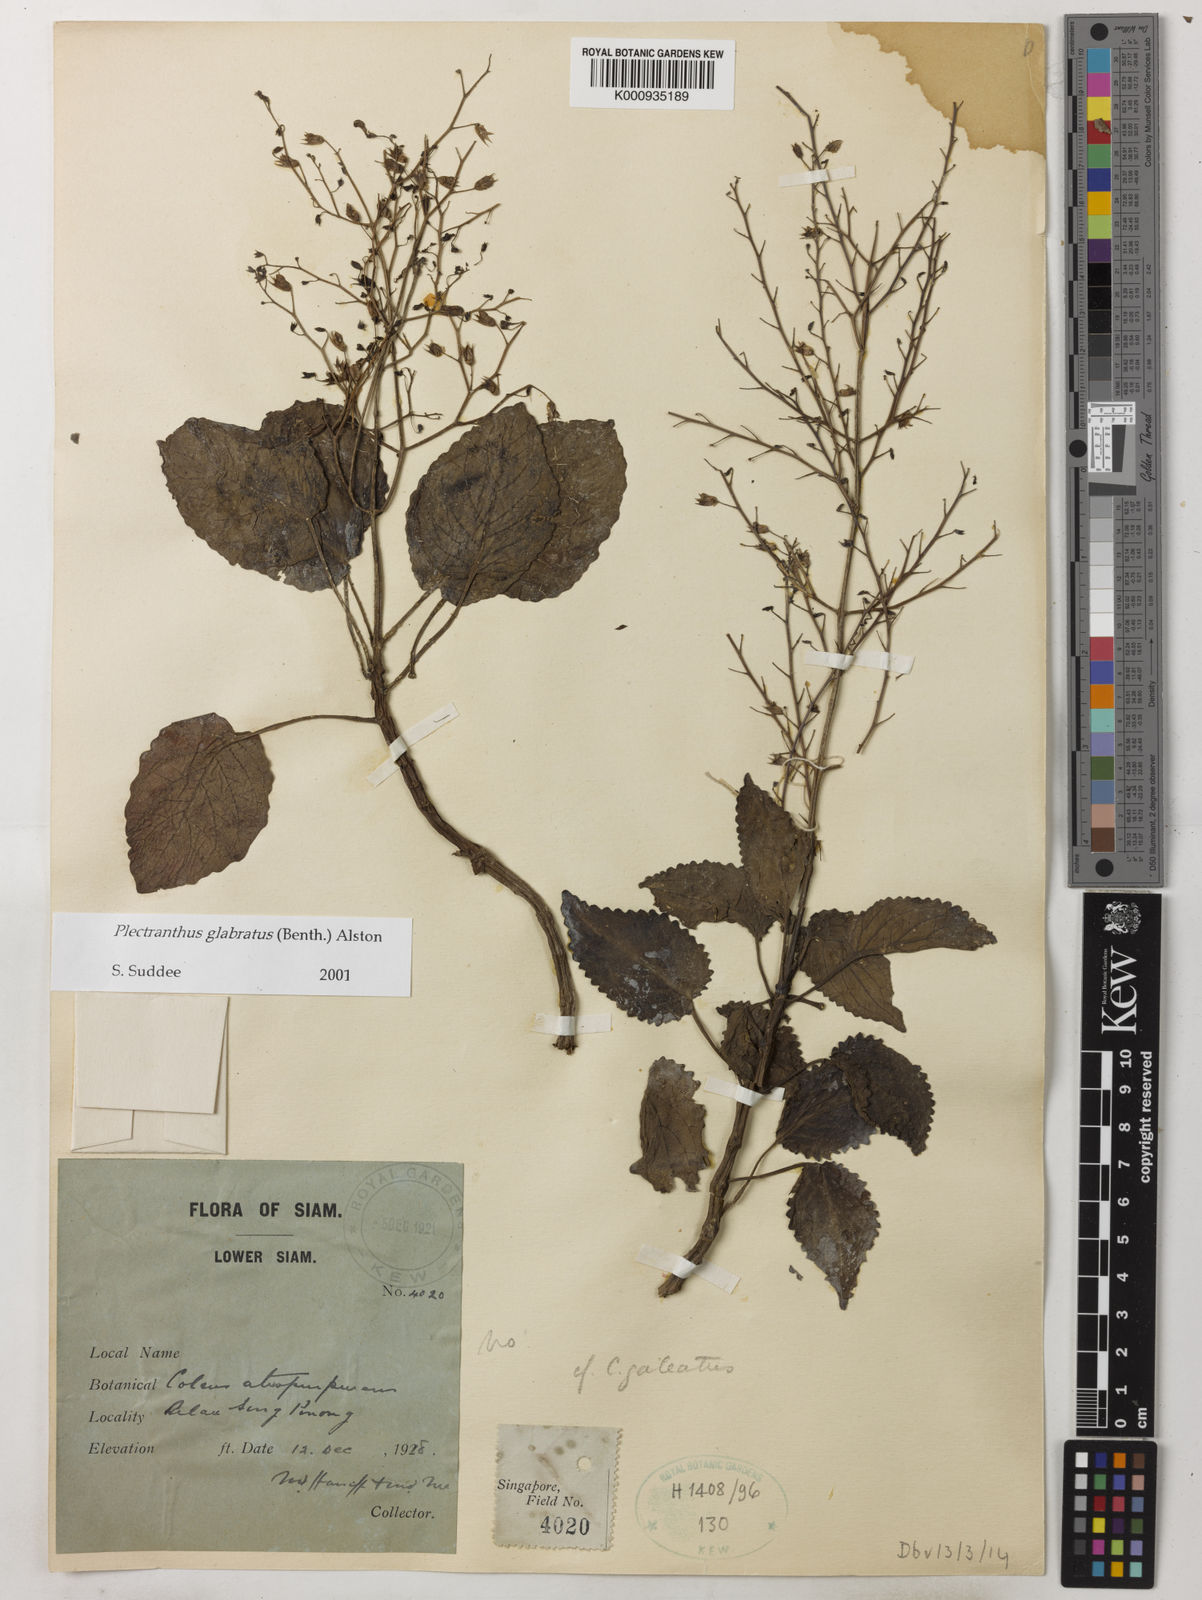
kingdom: Plantae
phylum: Tracheophyta
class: Magnoliopsida
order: Lamiales
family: Lamiaceae
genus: Coleus
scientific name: Coleus paniculatus
